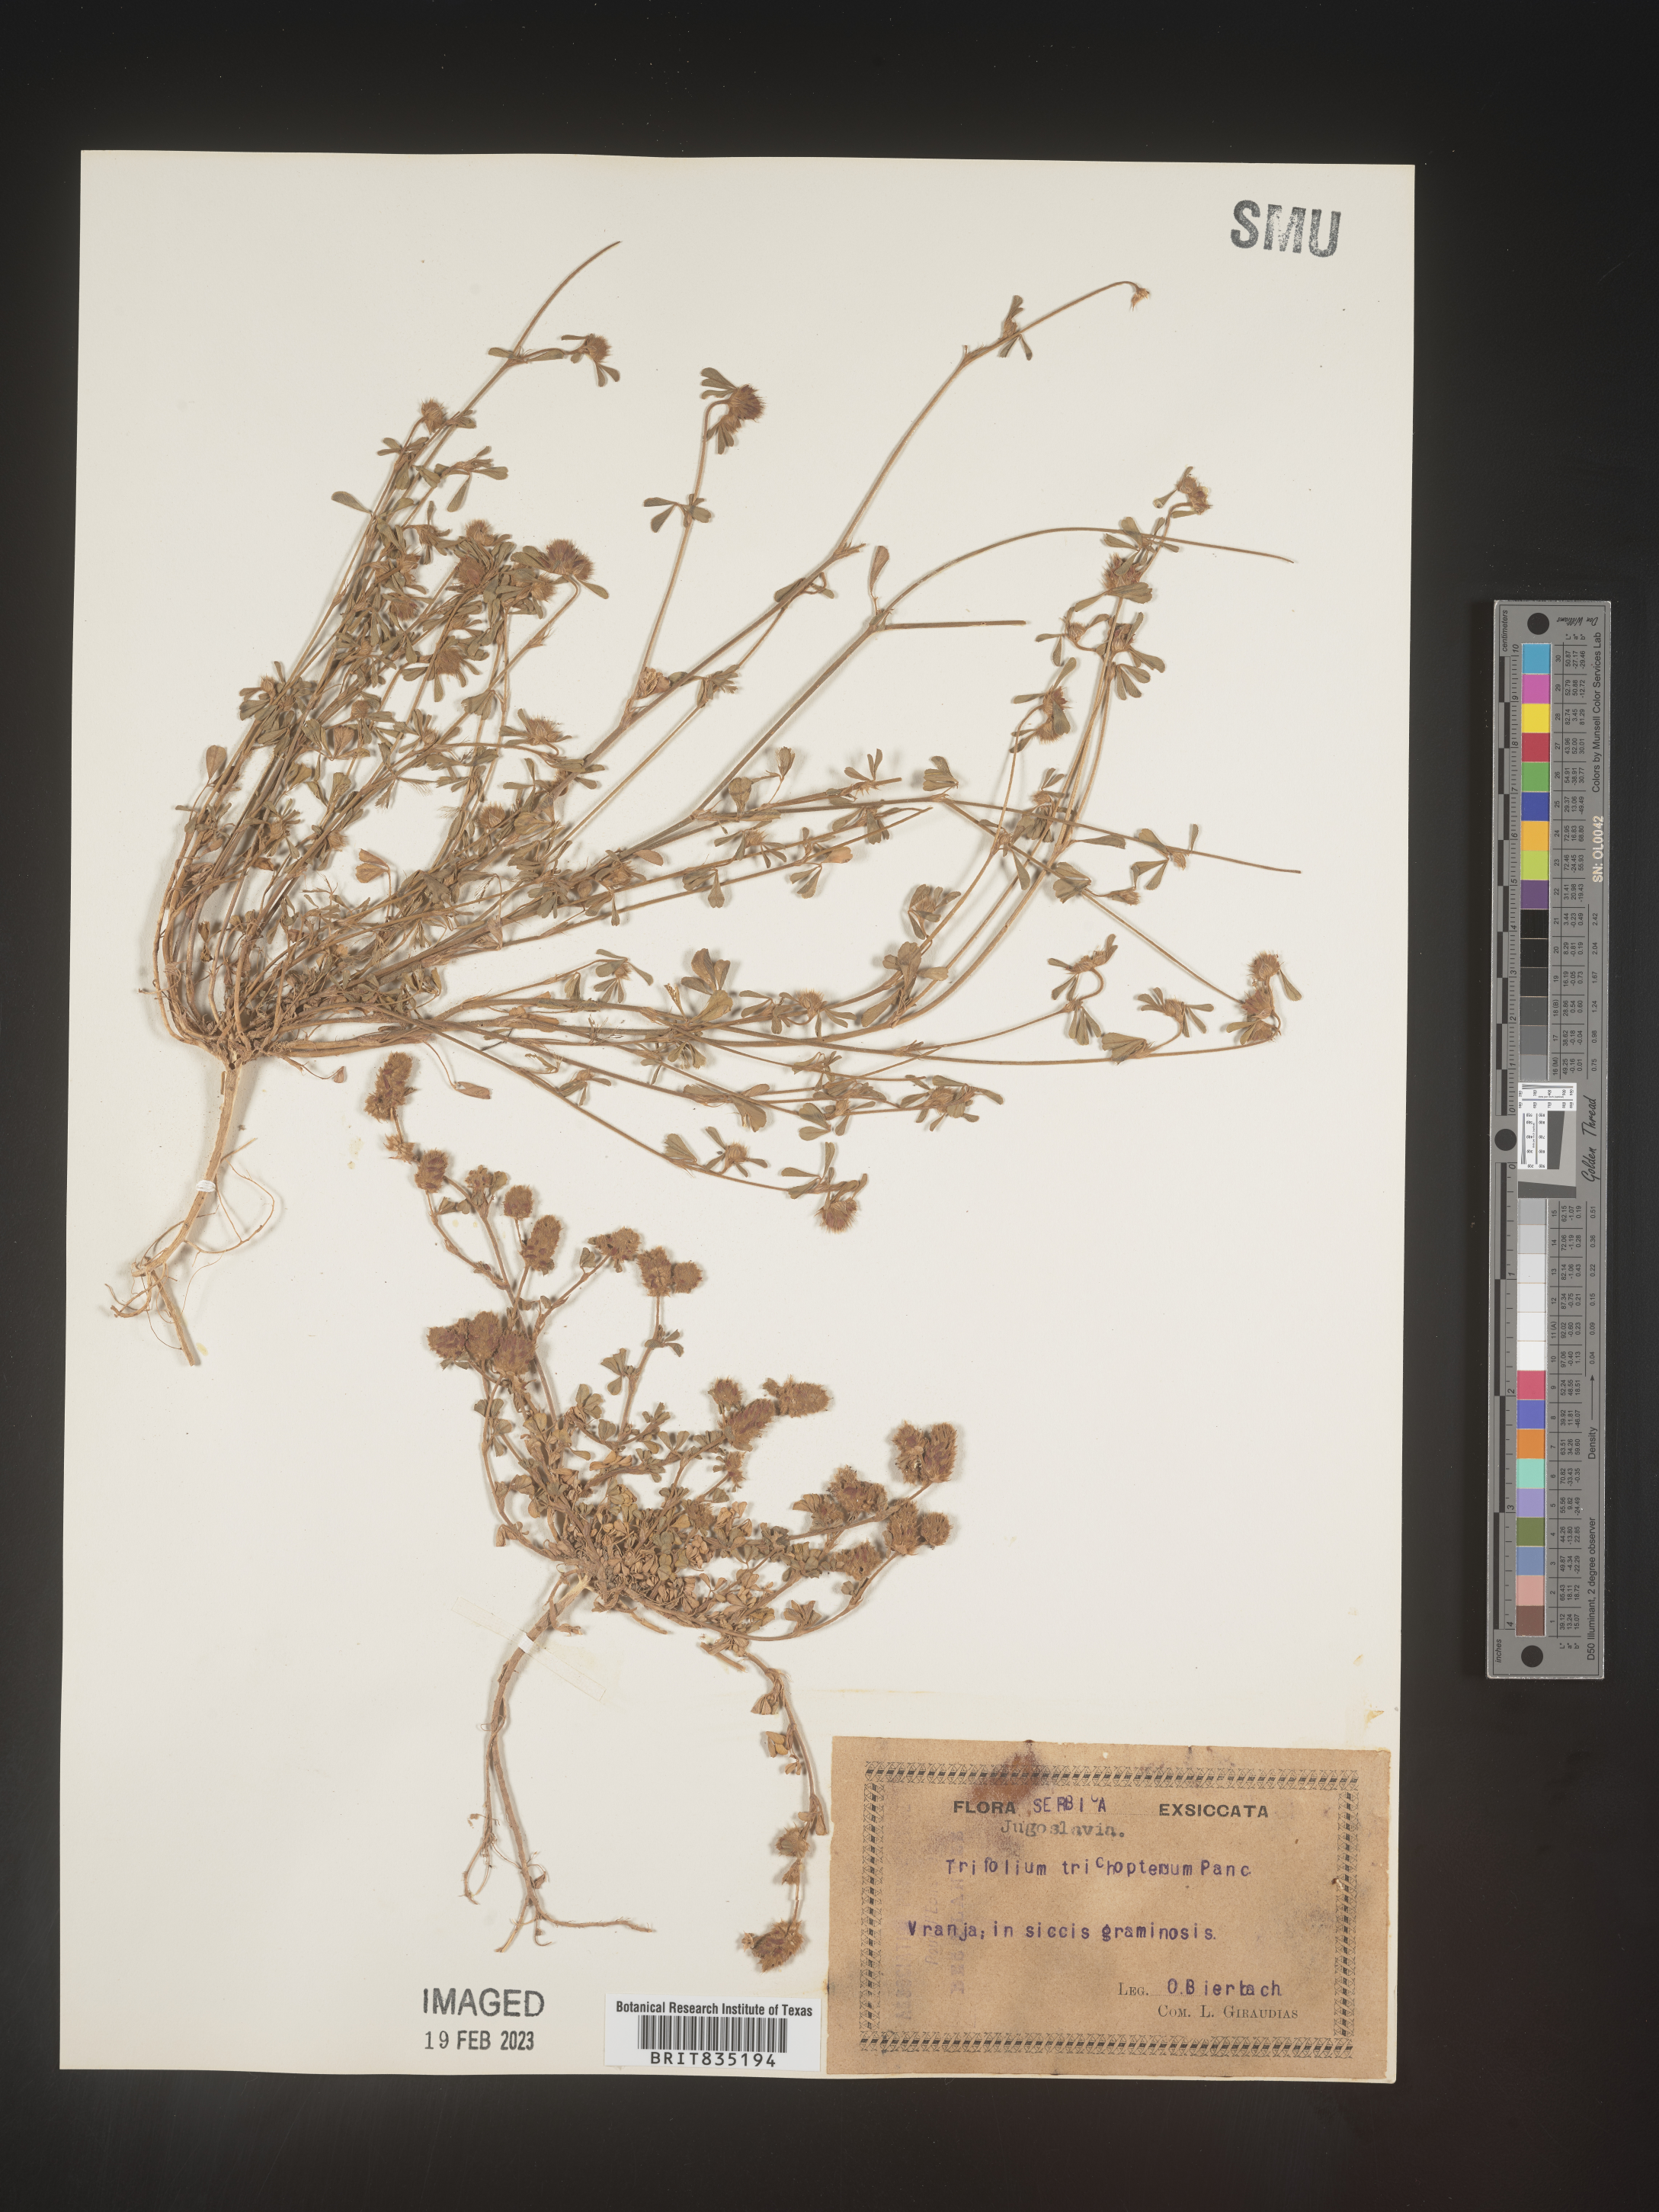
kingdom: Plantae
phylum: Tracheophyta
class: Magnoliopsida
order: Fabales
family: Fabaceae
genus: Trifolium
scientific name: Trifolium
